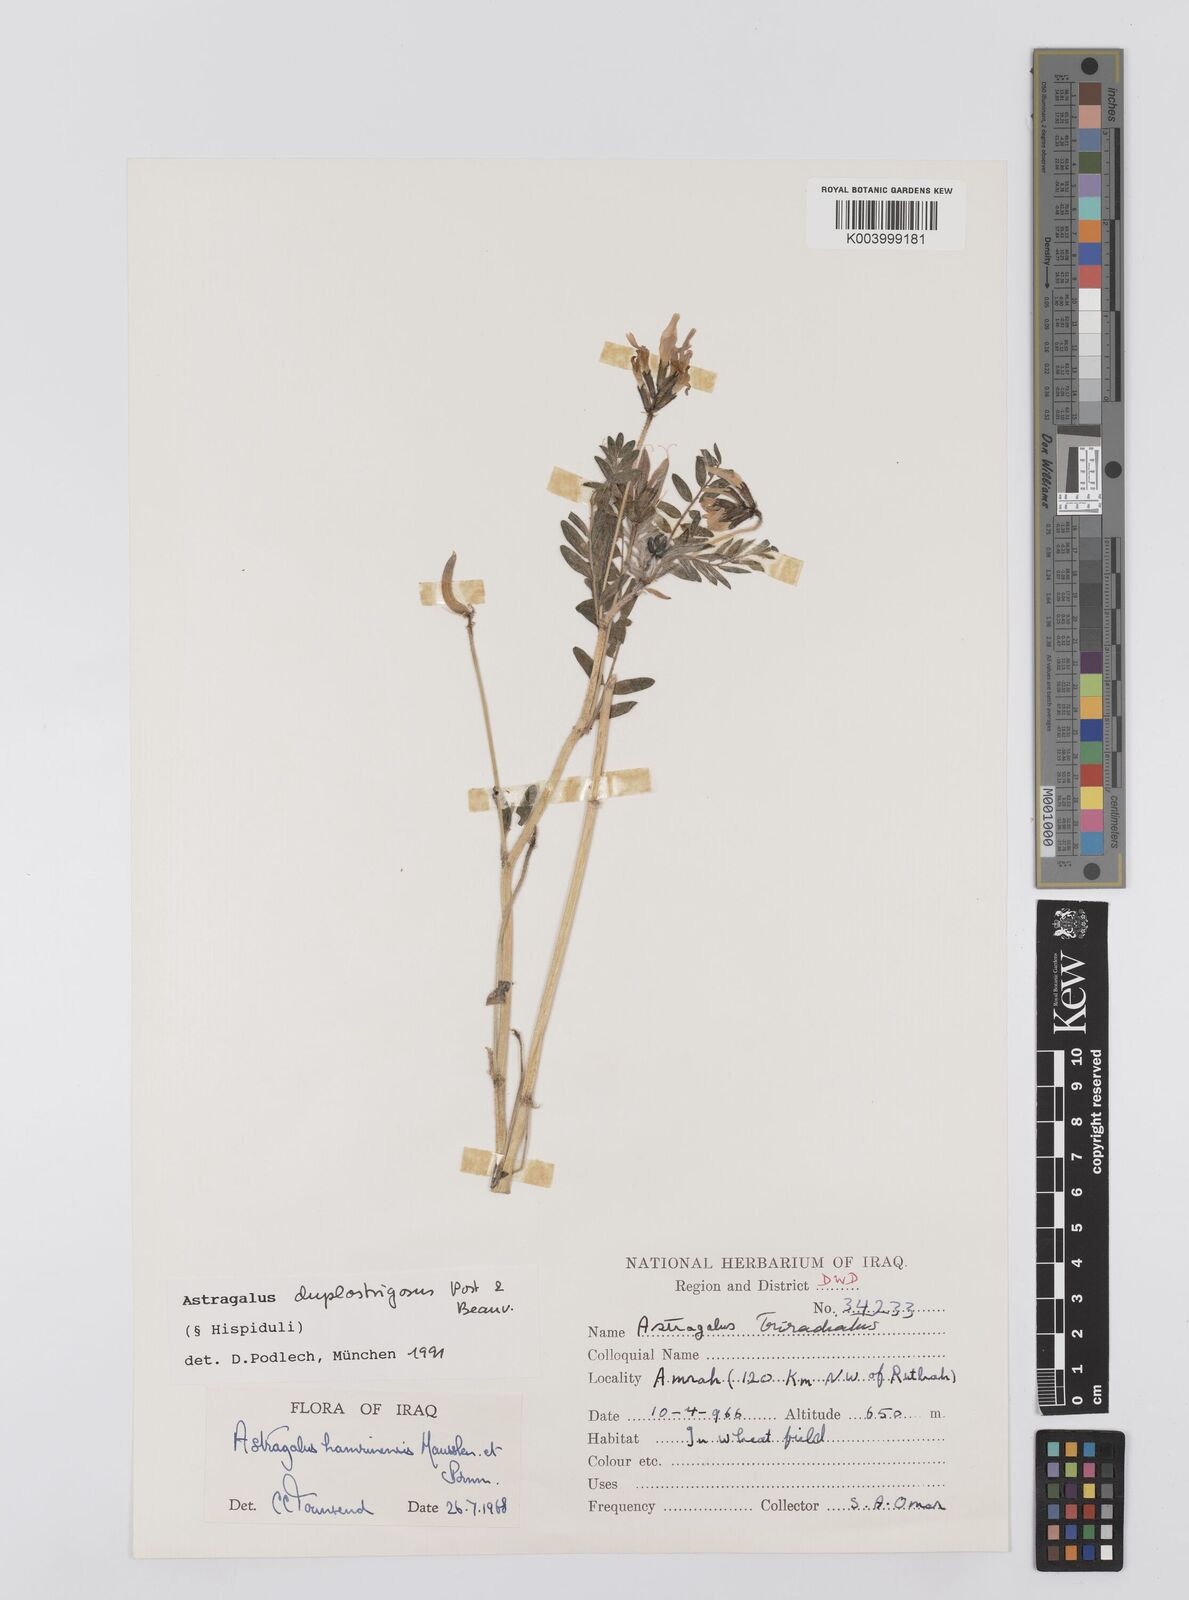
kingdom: Plantae
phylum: Tracheophyta
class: Magnoliopsida
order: Fabales
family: Fabaceae
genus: Astragalus
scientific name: Astragalus duplostrigosus
